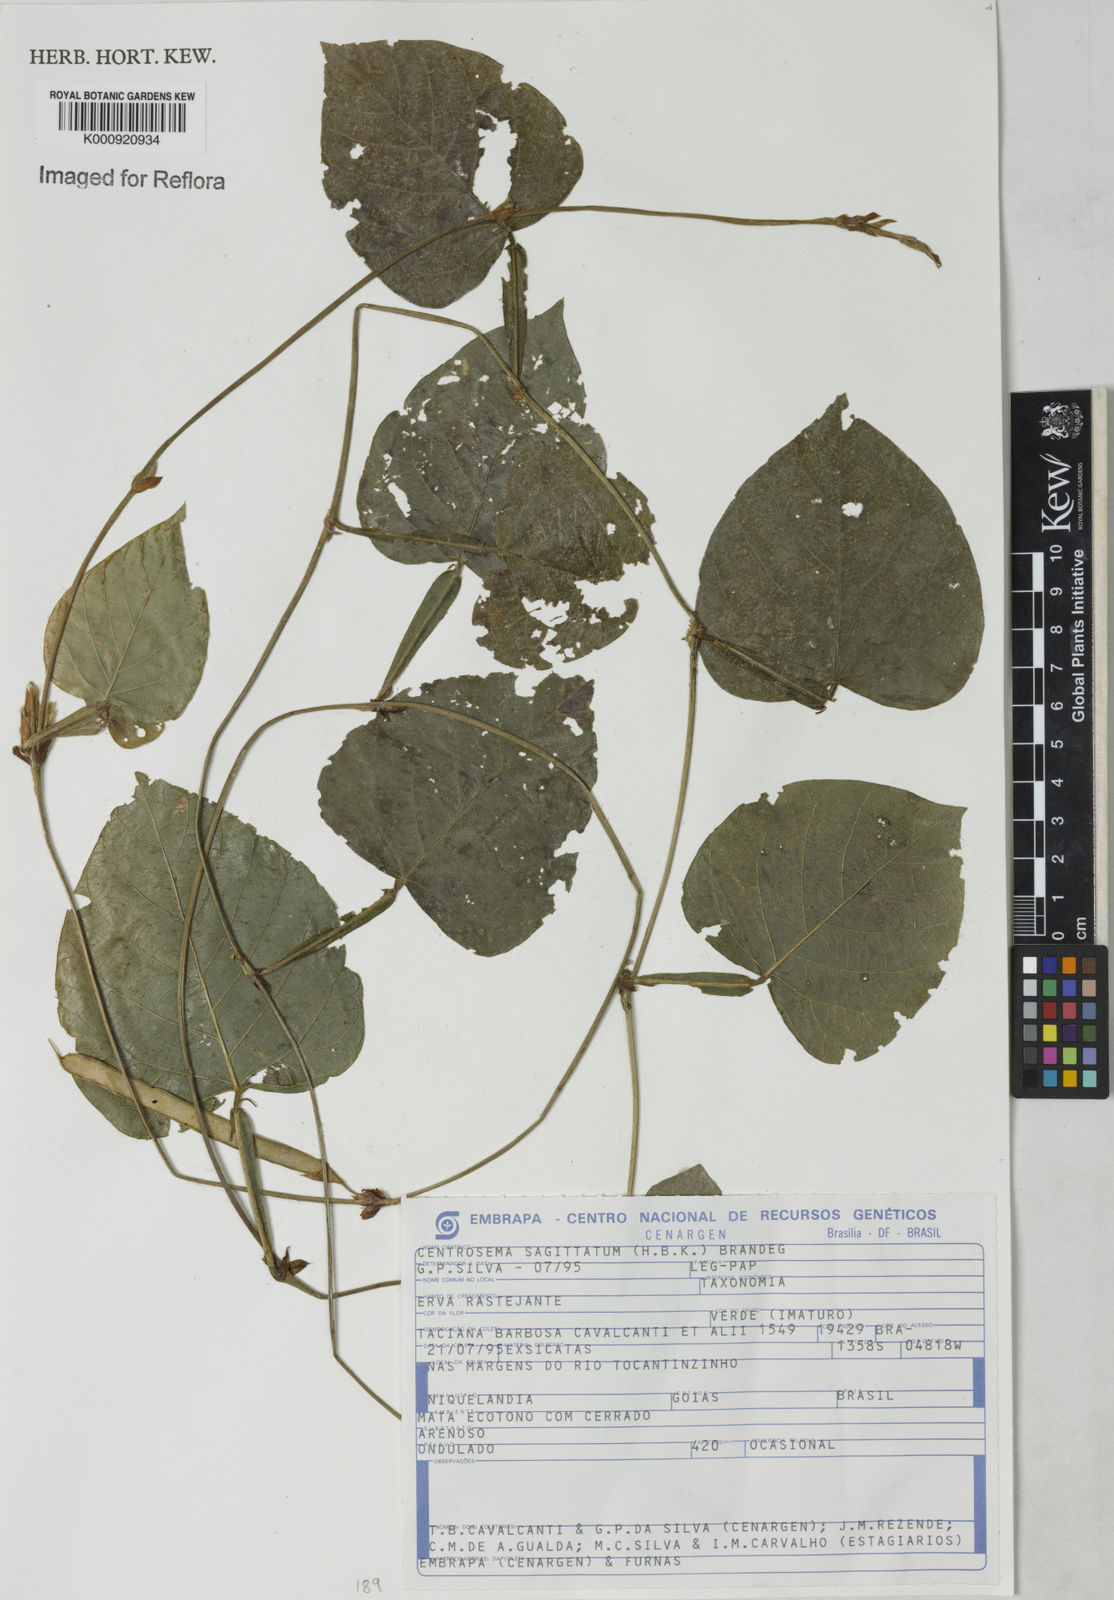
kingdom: Plantae
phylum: Tracheophyta
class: Magnoliopsida
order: Fabales
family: Fabaceae
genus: Centrosema
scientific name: Centrosema sagittatum
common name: Arrowleaf butterfly pea
